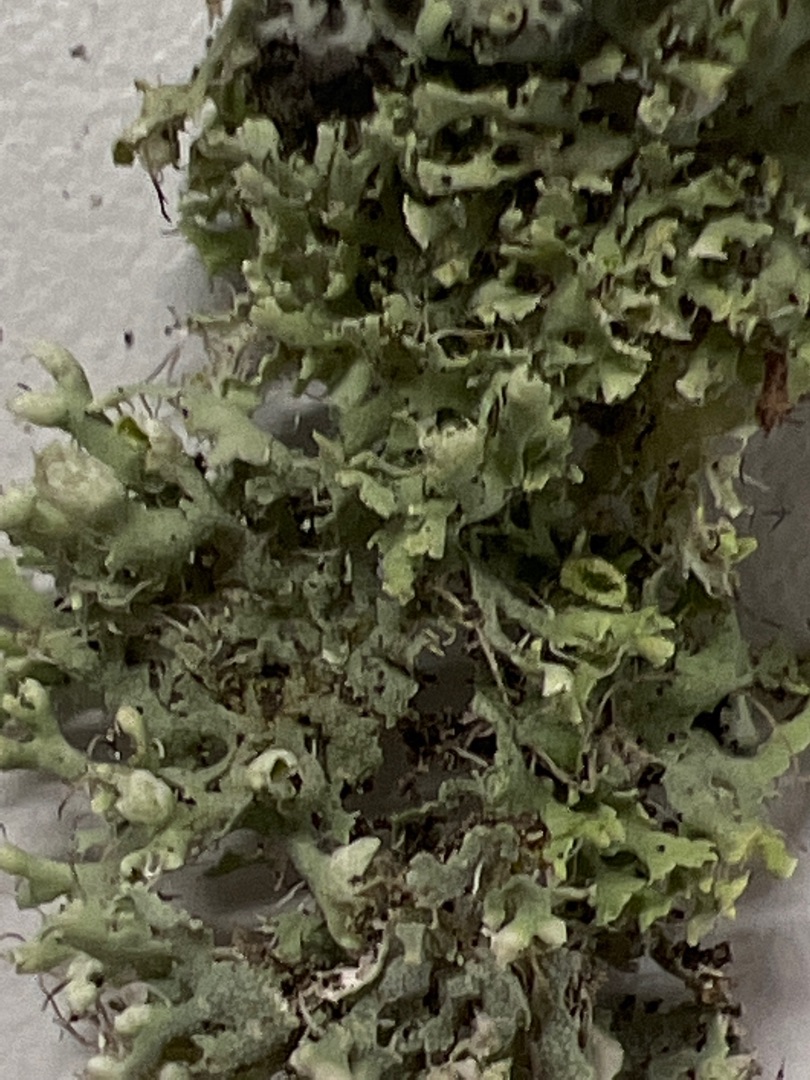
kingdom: Fungi
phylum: Ascomycota
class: Lecanoromycetes
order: Caliciales
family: Physciaceae
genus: Physcia
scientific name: Physcia adscendens
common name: Hætte-rosetlav
